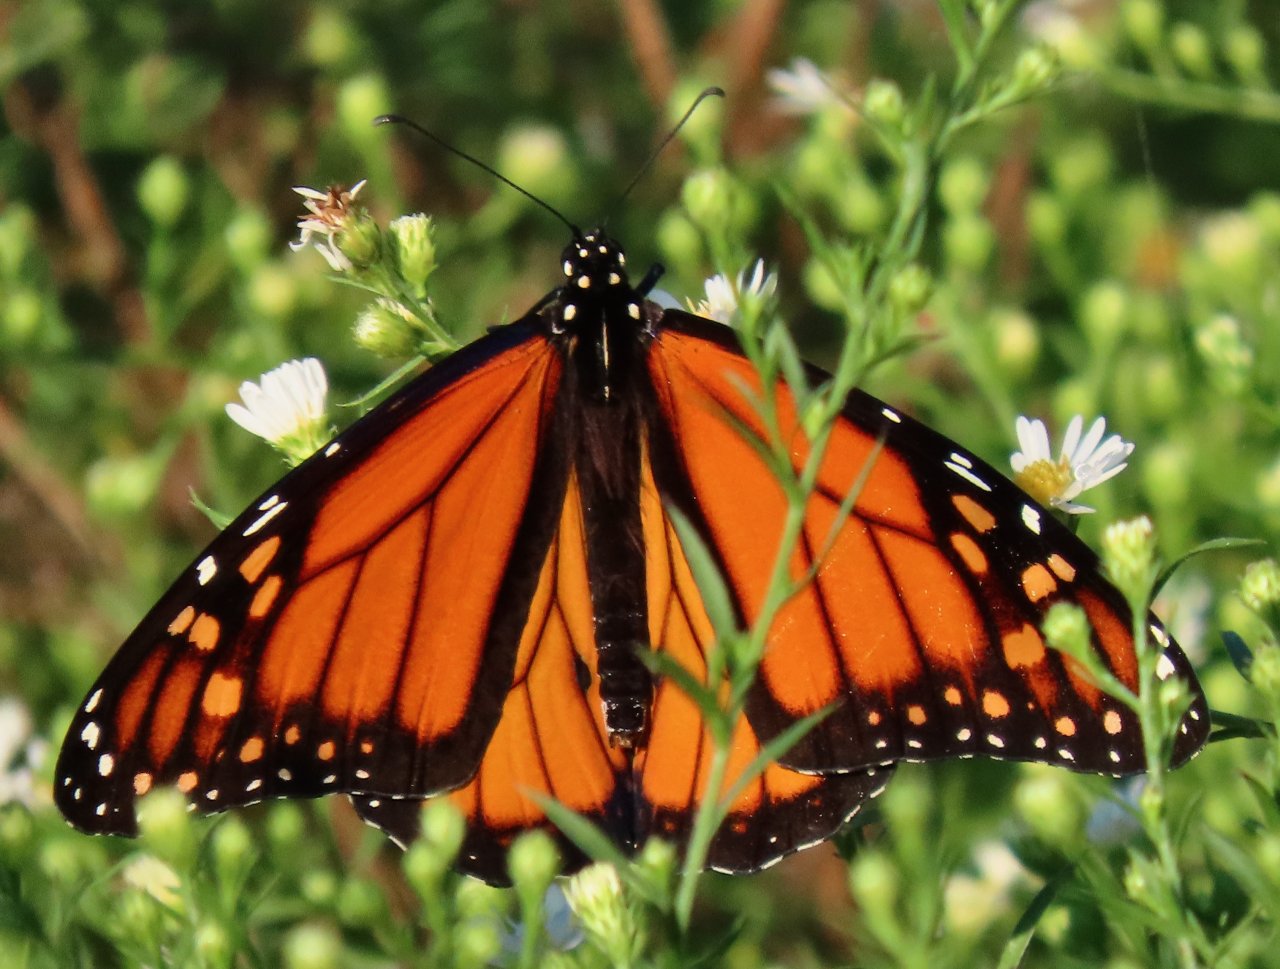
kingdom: Animalia
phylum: Arthropoda
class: Insecta
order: Lepidoptera
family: Nymphalidae
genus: Danaus
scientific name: Danaus plexippus
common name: Monarch
